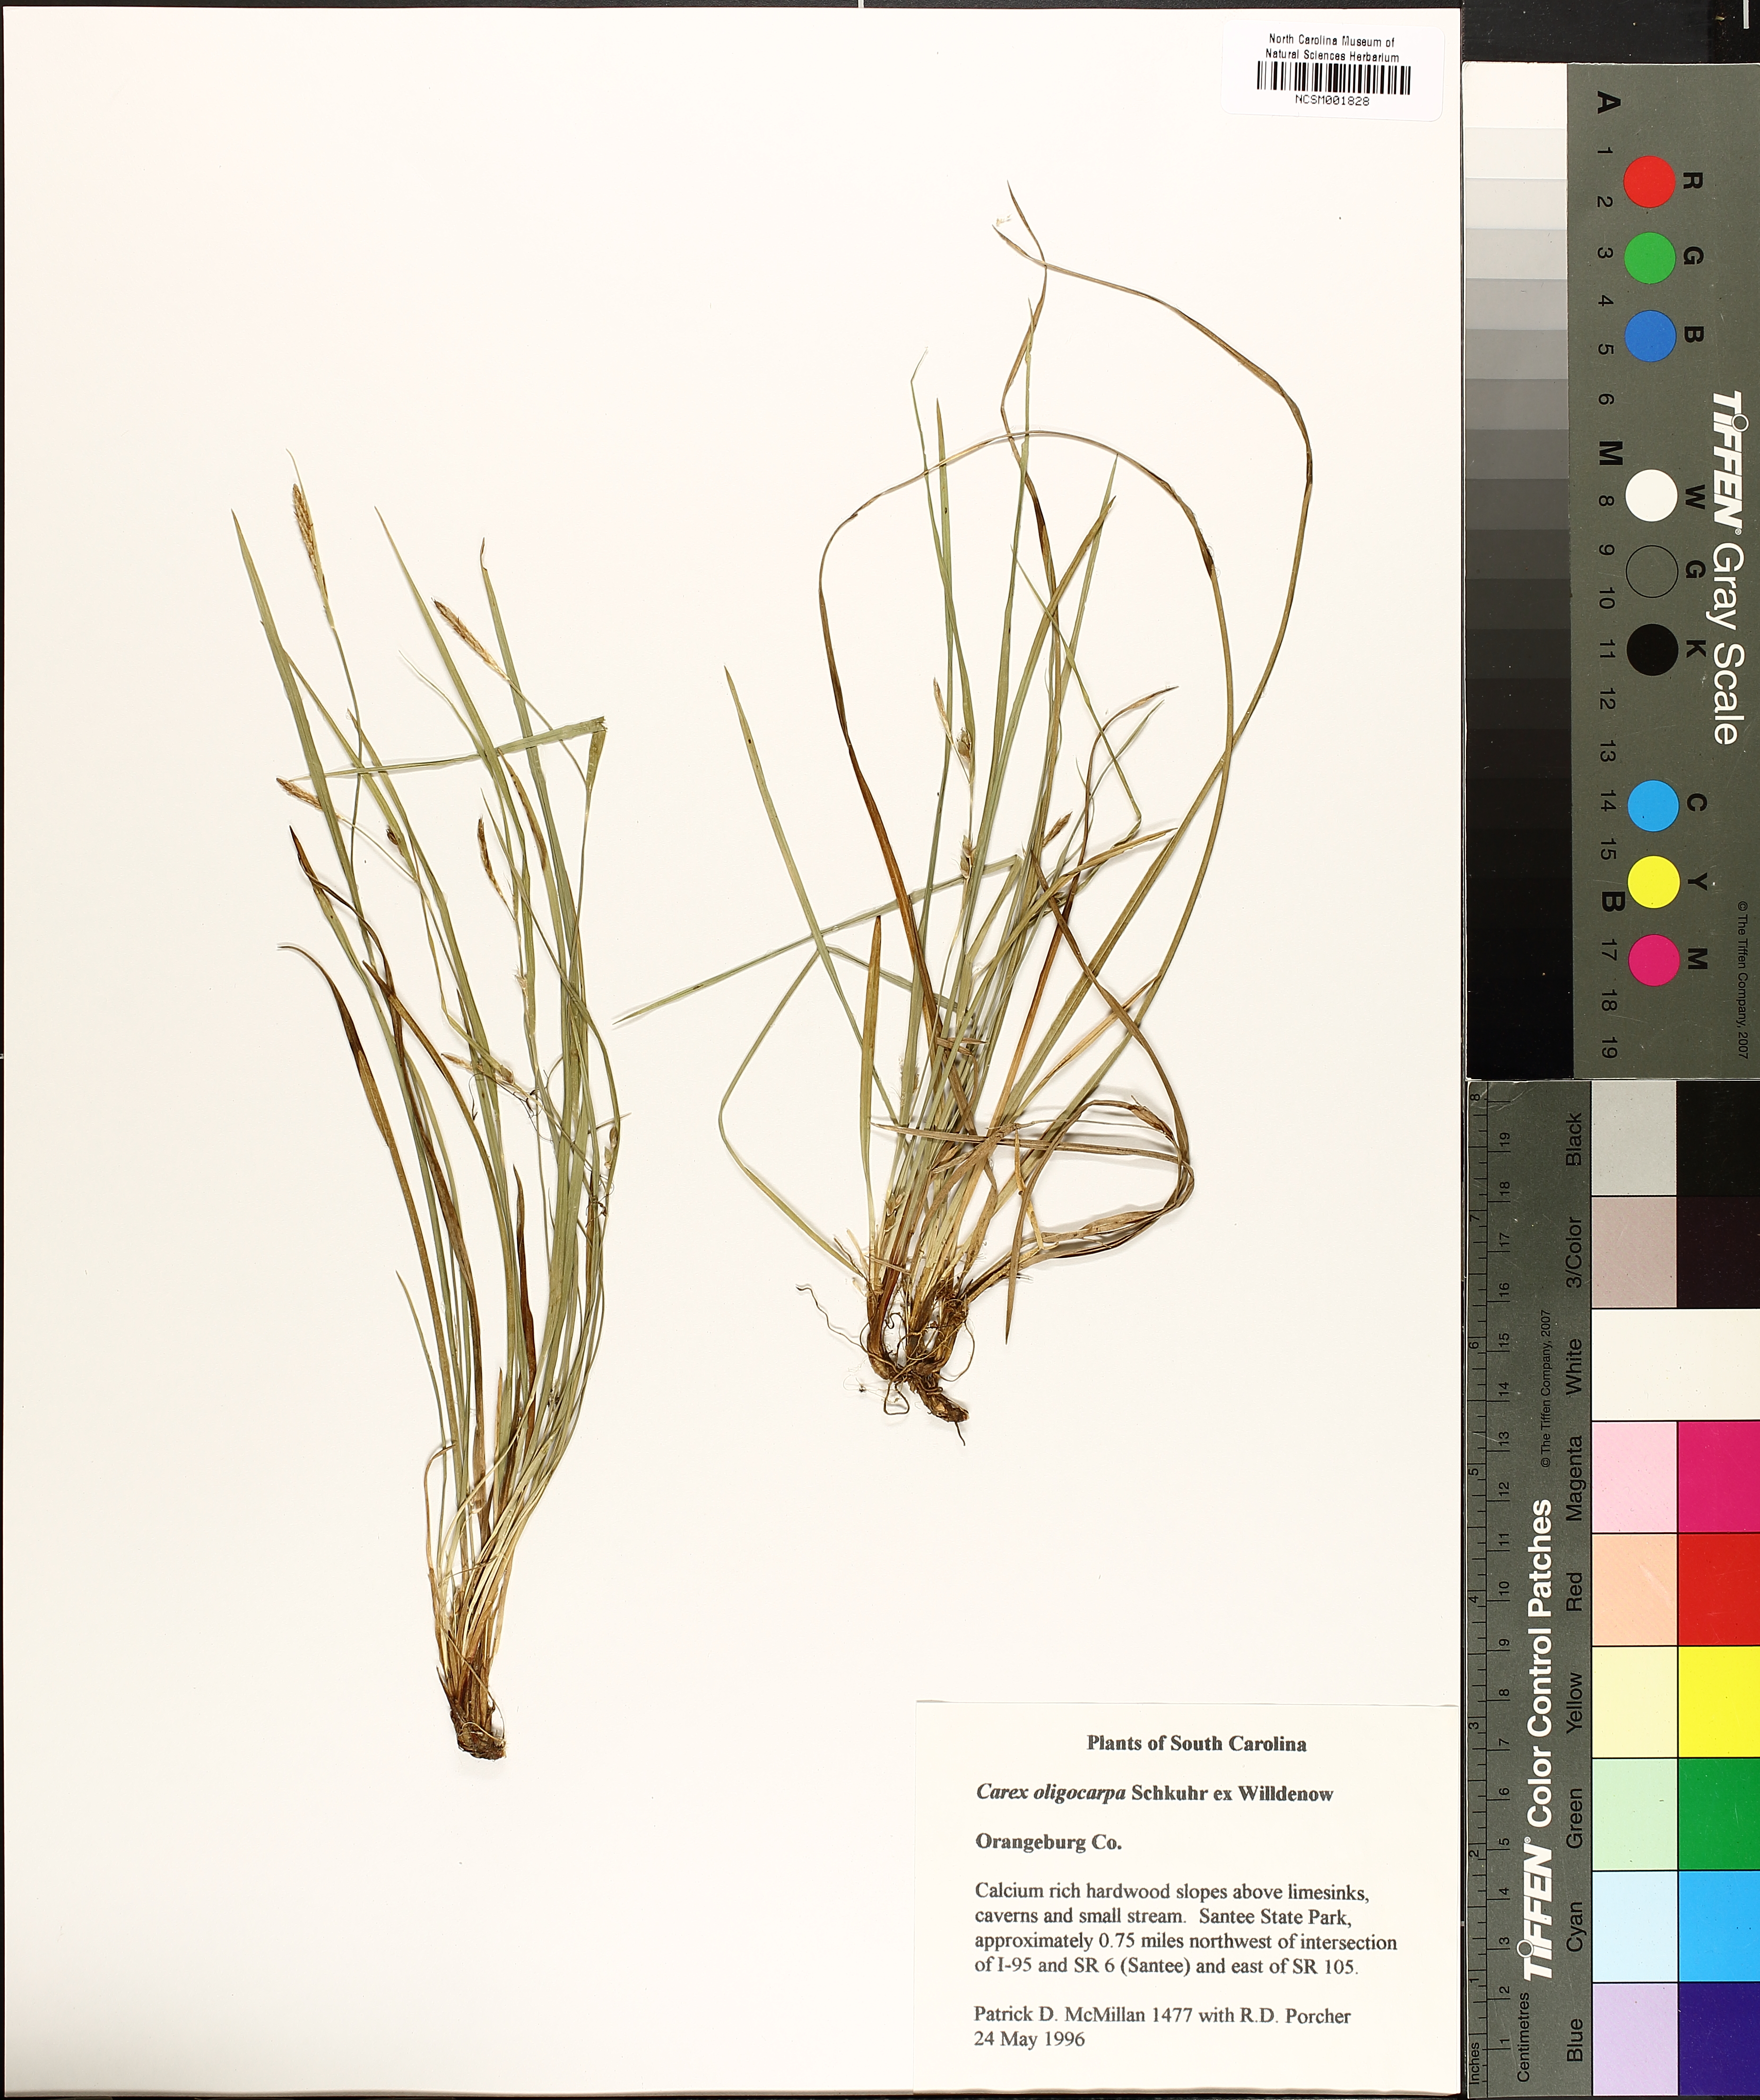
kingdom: Plantae
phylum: Tracheophyta
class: Liliopsida
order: Poales
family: Cyperaceae
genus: Carex
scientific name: Carex oligocarpa
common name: Eastern few-fruited sedge
